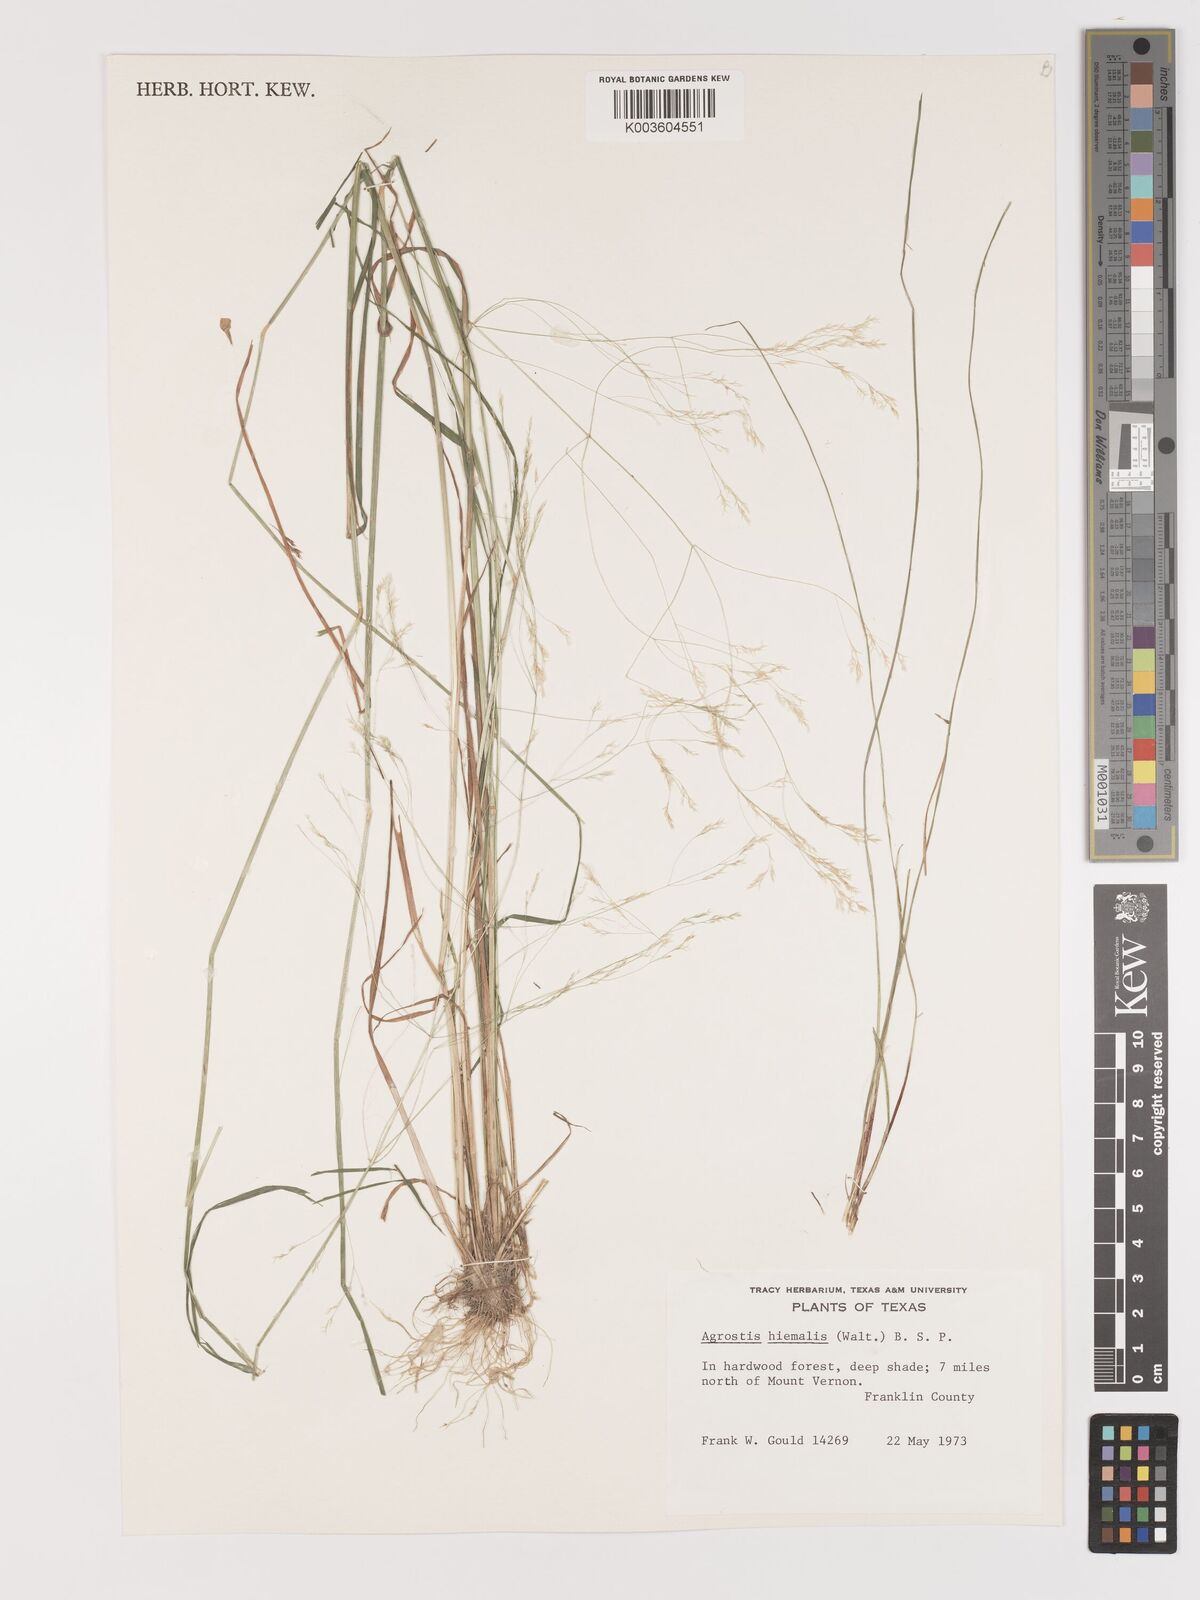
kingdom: Plantae
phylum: Tracheophyta
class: Liliopsida
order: Poales
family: Poaceae
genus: Agrostis
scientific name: Agrostis hyemalis
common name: Small bent
